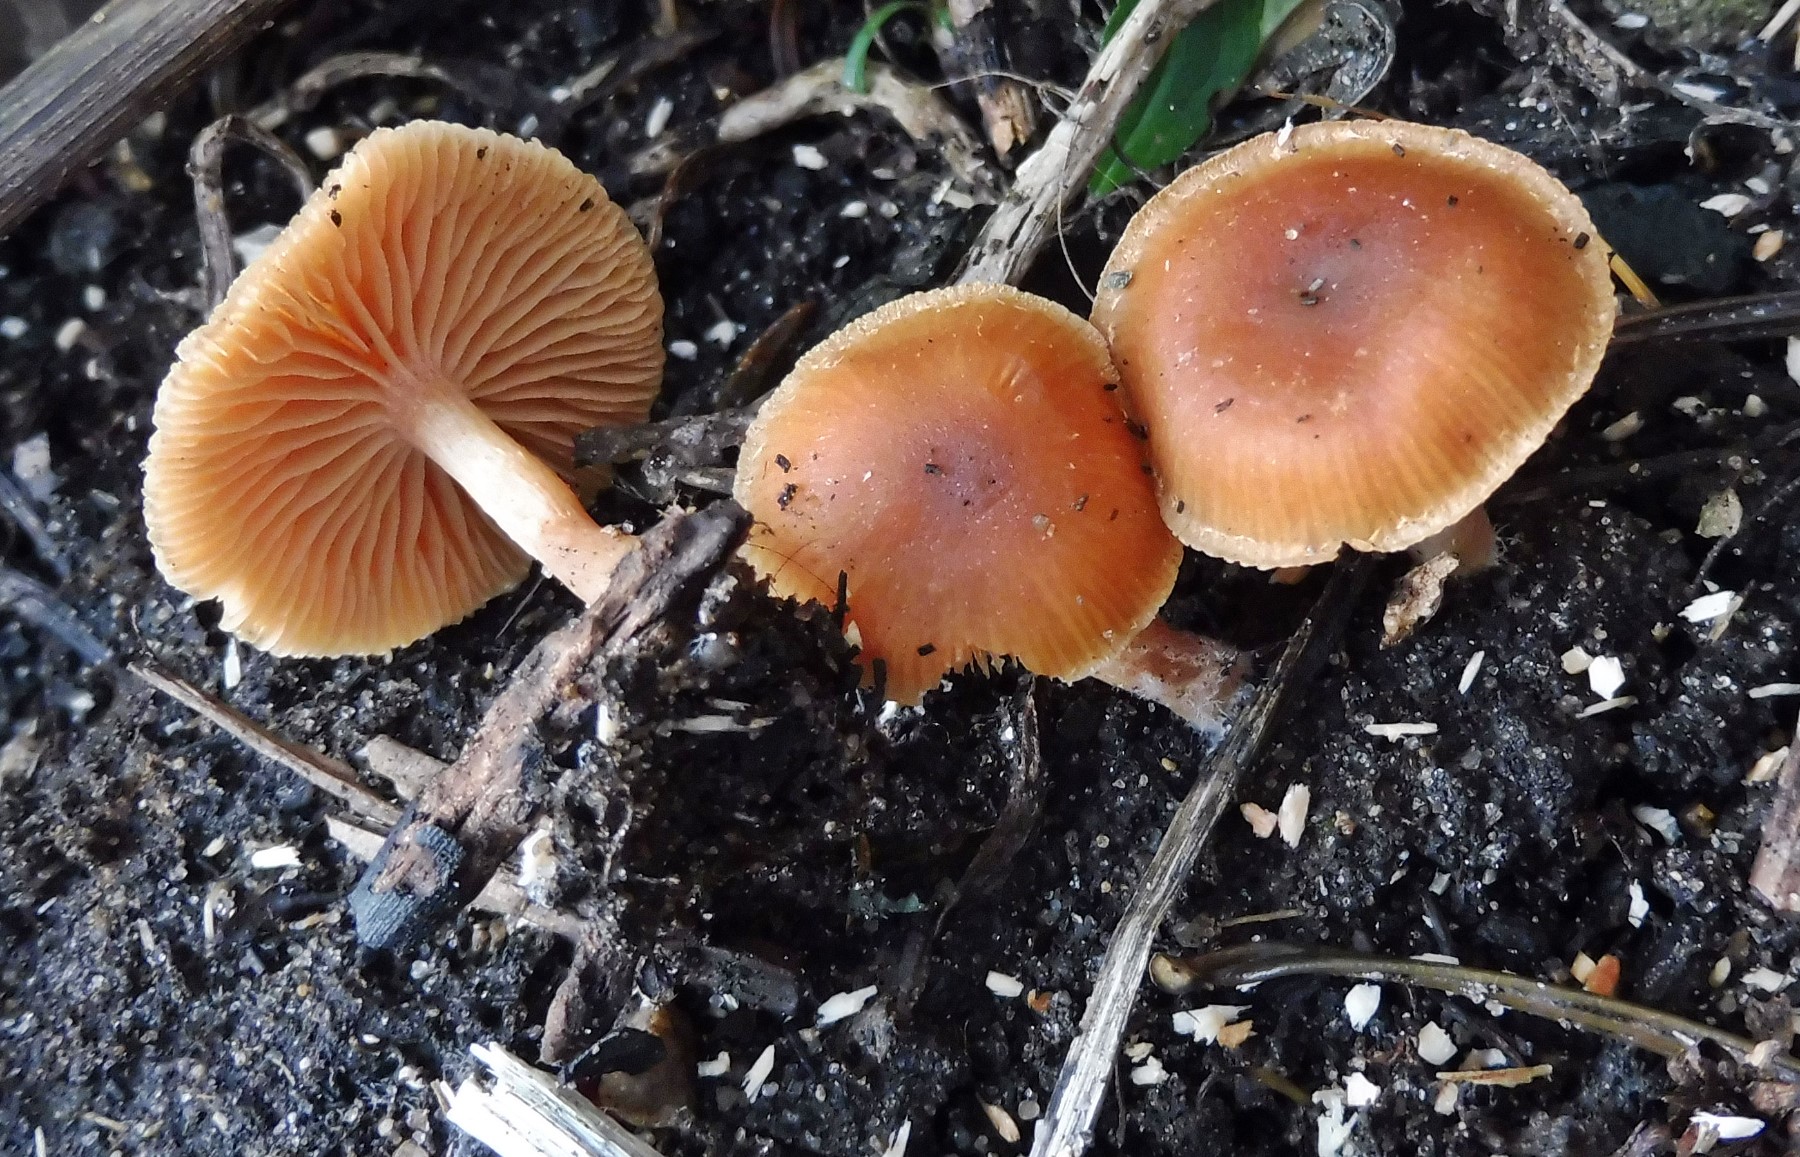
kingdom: Fungi
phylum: Basidiomycota
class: Agaricomycetes
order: Agaricales
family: Tubariaceae
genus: Tubaria
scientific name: Tubaria furfuracea
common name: kliddet fnughat
